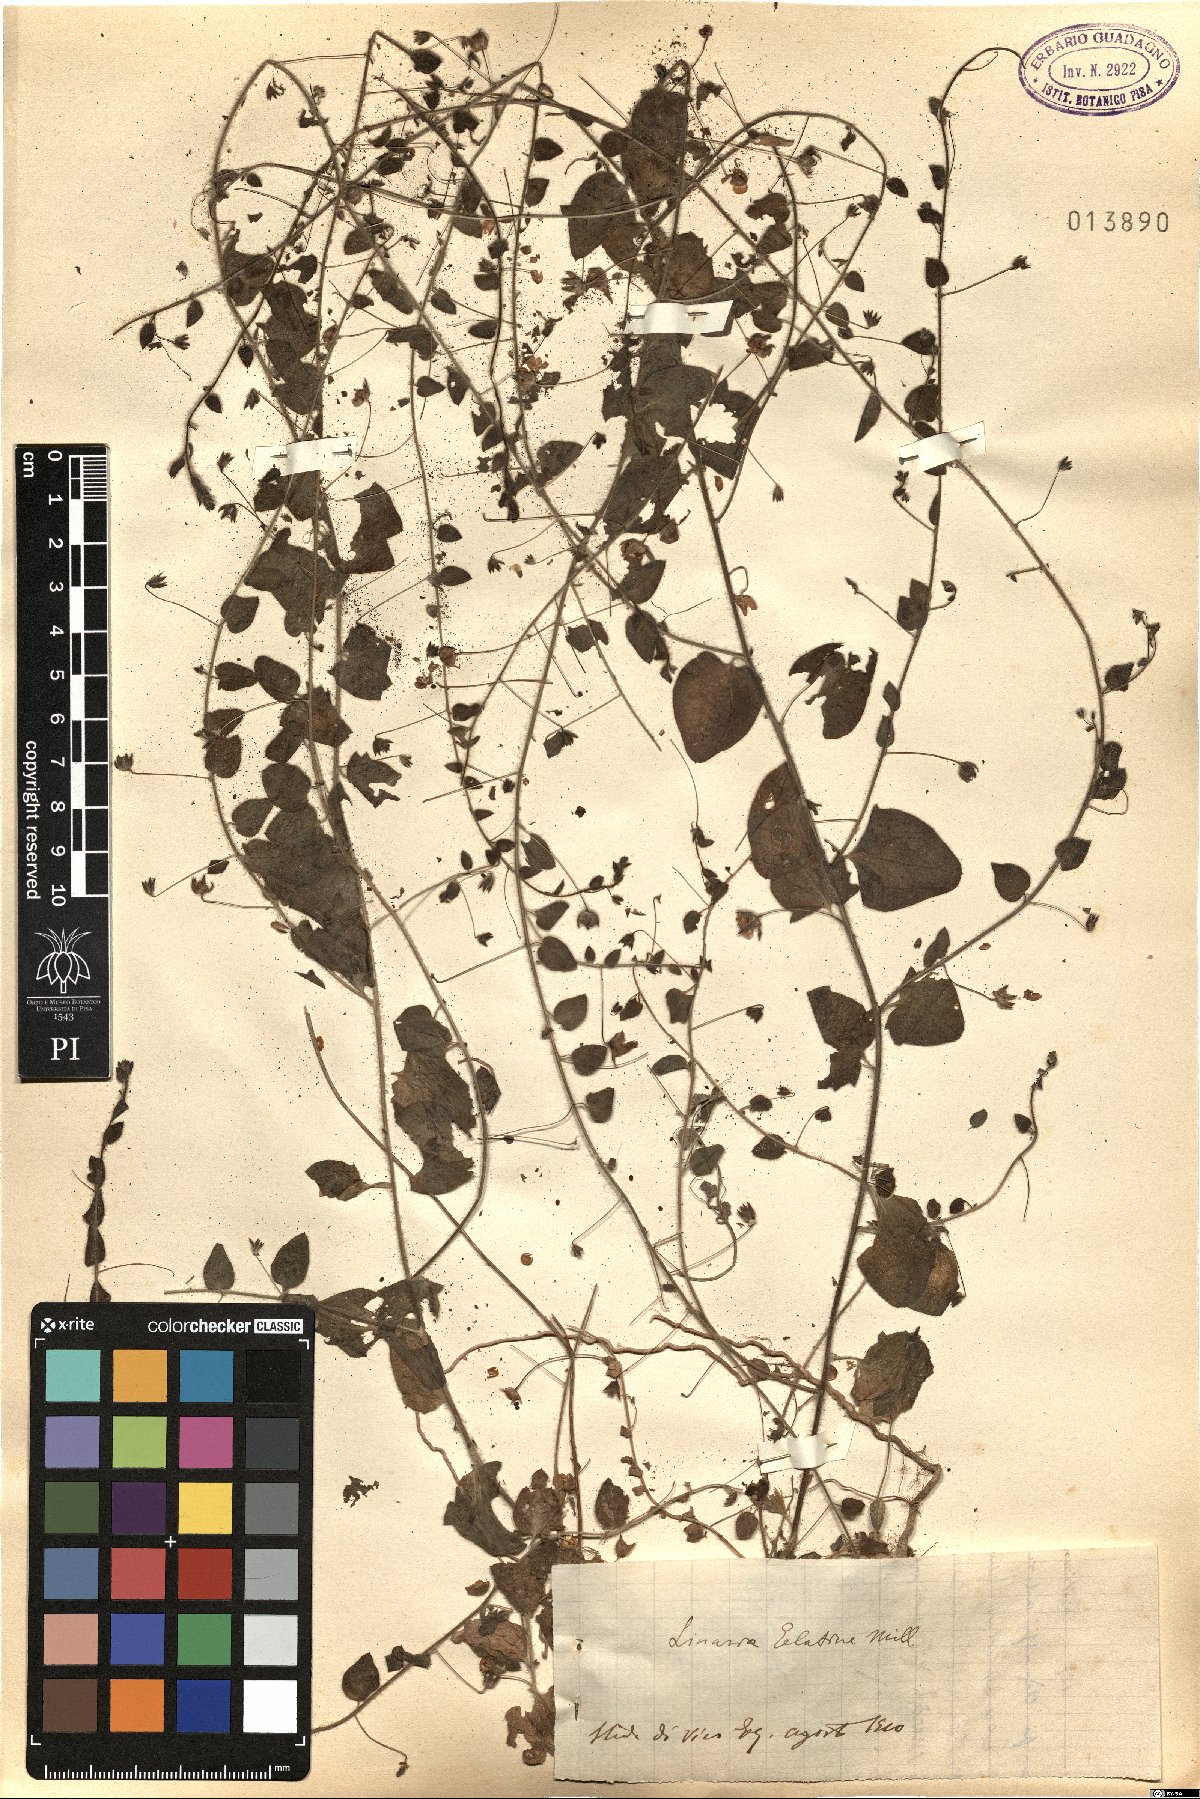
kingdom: Plantae
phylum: Tracheophyta
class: Magnoliopsida
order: Lamiales
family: Plantaginaceae
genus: Kickxia
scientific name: Kickxia elatine
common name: Sharp-leaved fluellen
